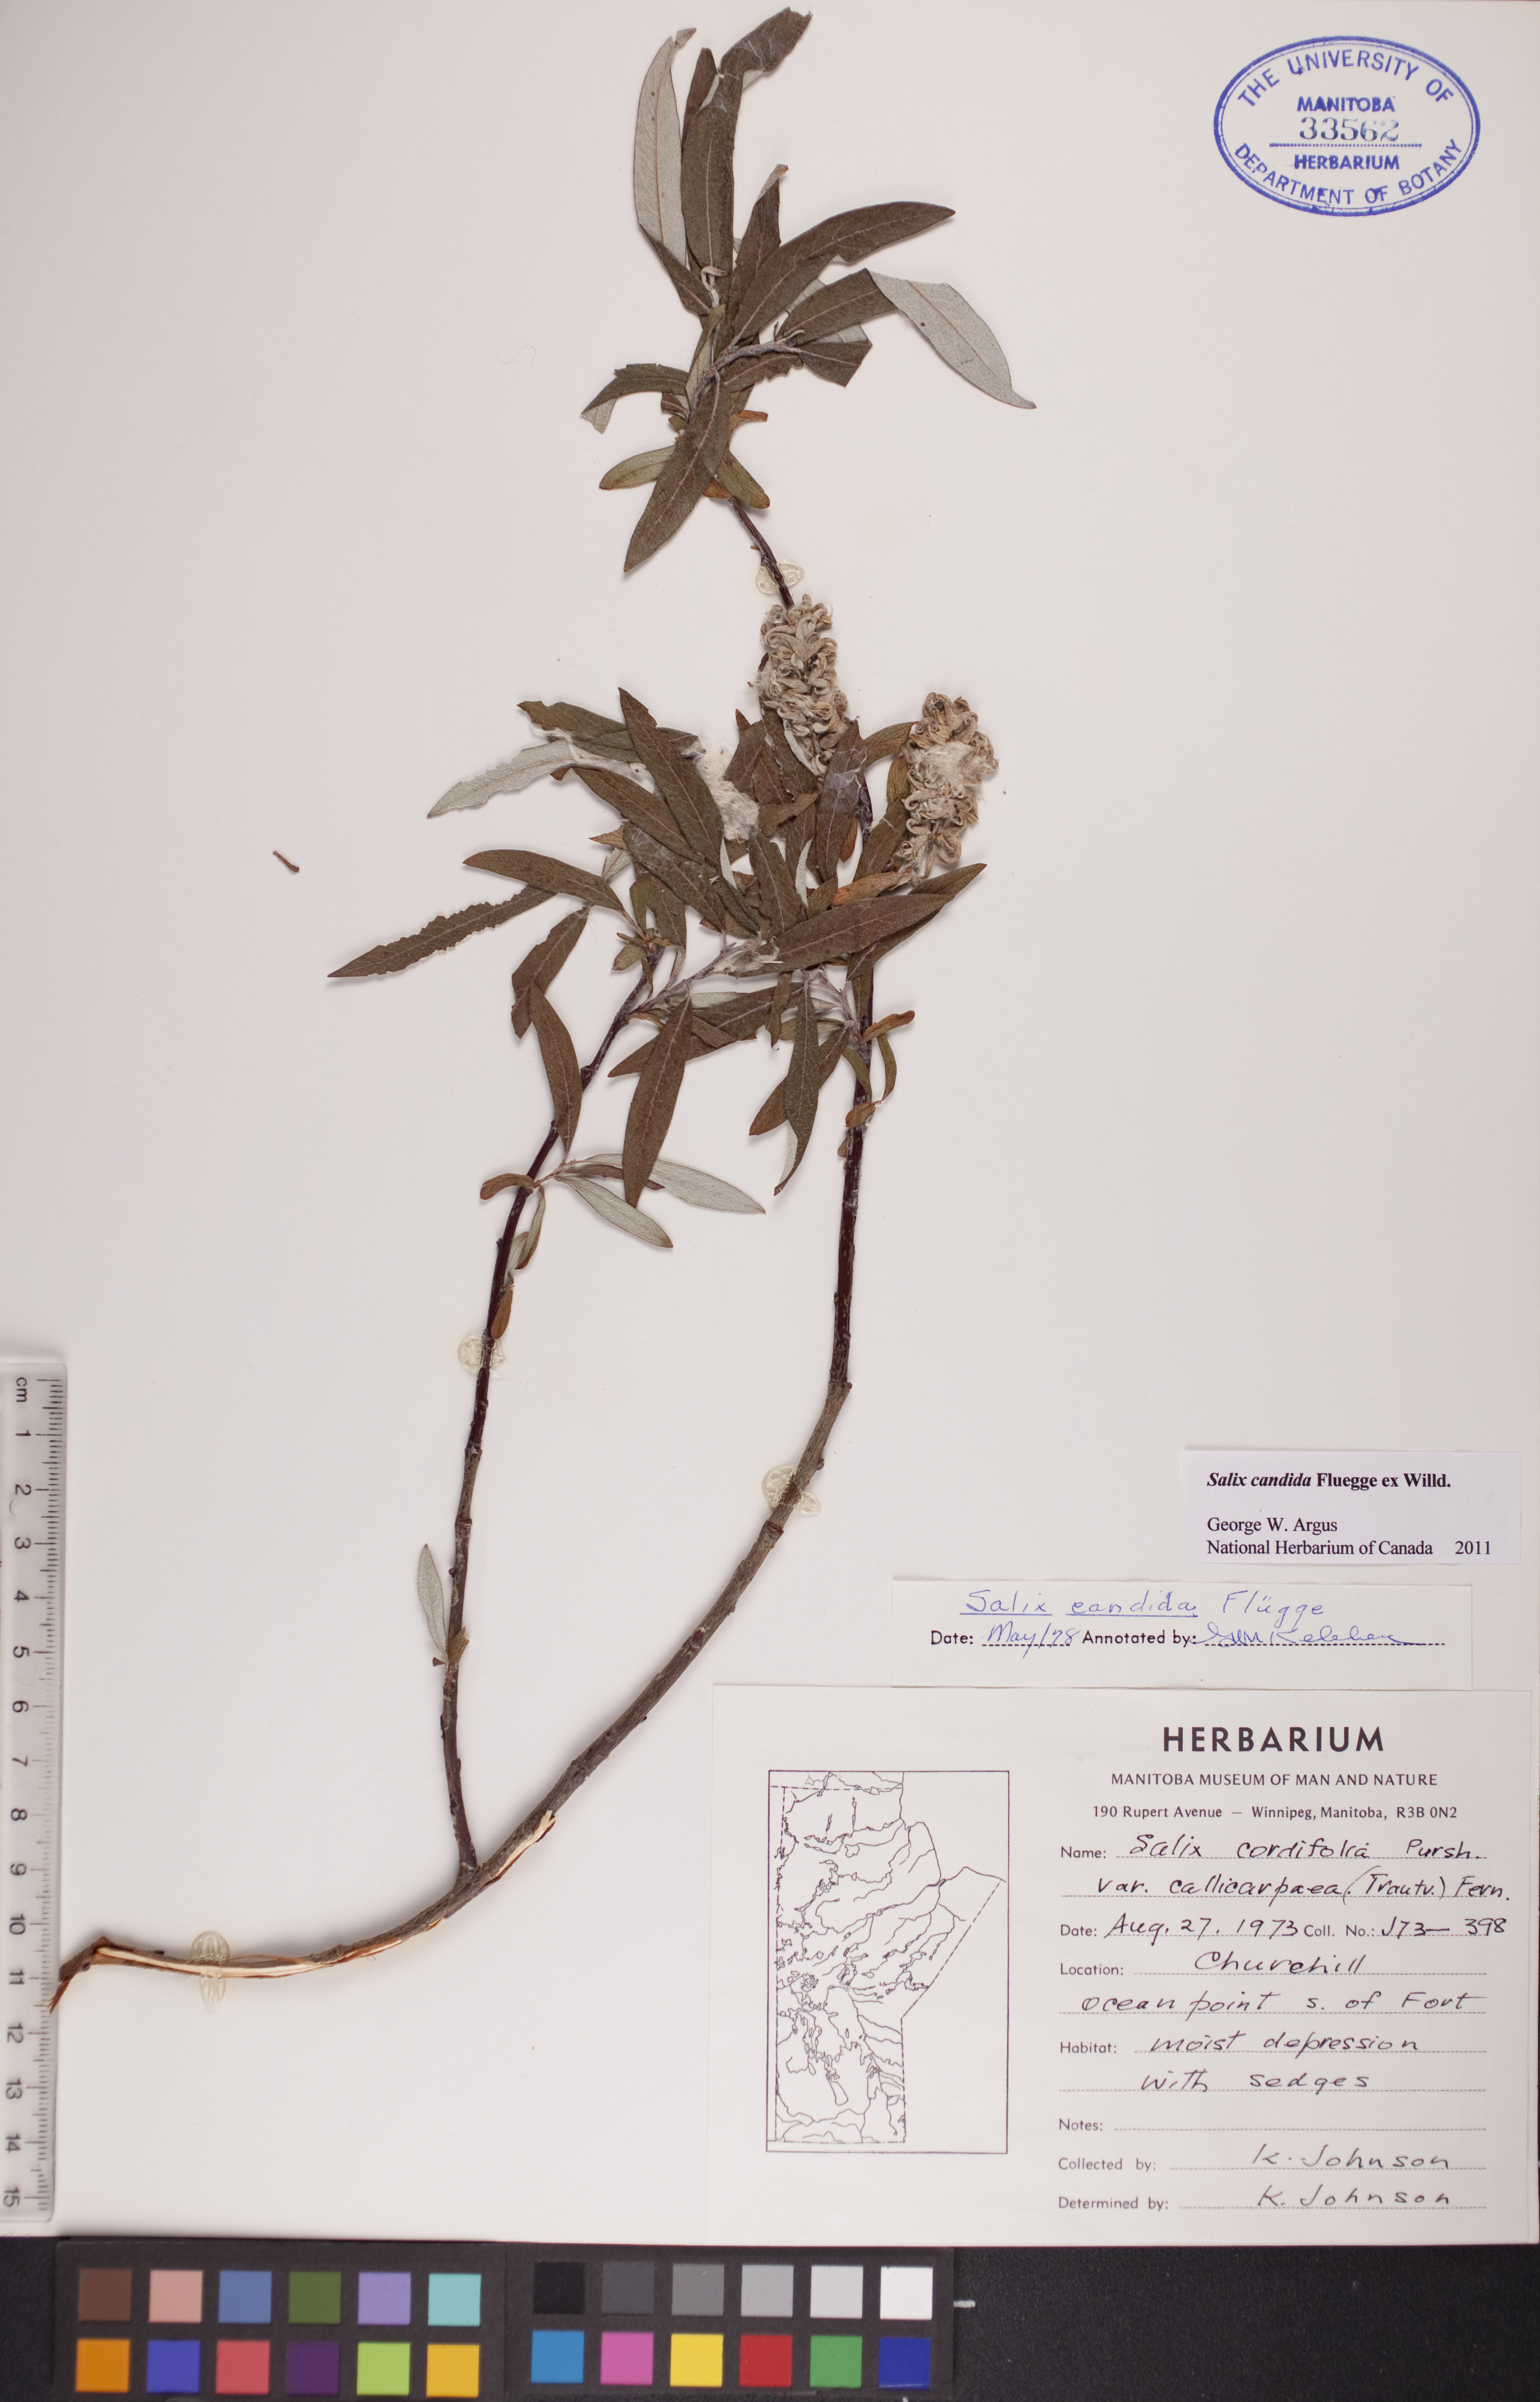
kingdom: Plantae
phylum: Tracheophyta
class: Magnoliopsida
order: Malpighiales
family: Salicaceae
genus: Salix
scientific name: Salix candida
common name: Hoary willow
